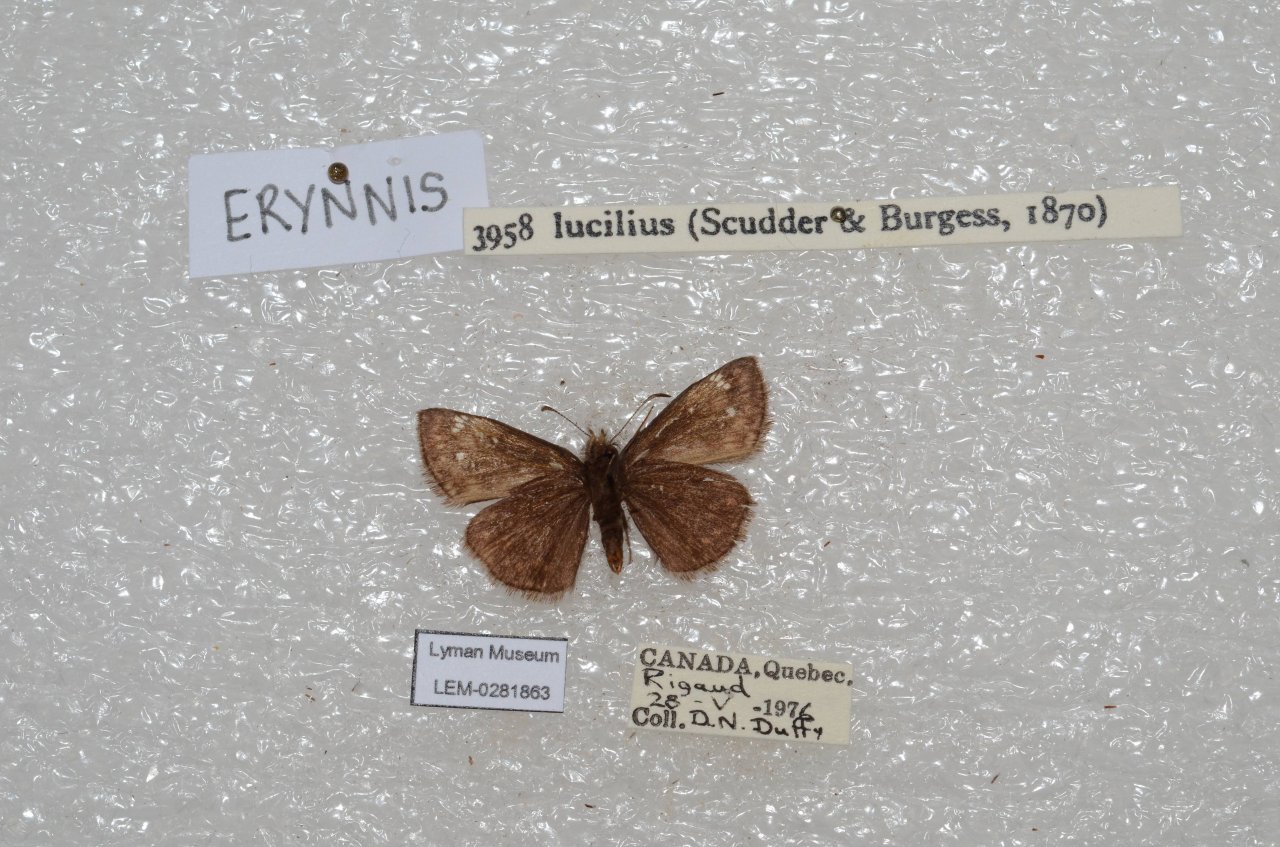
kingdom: Animalia
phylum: Arthropoda
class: Insecta
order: Lepidoptera
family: Hesperiidae
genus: Gesta
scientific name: Gesta
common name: Columbine Duskywing
